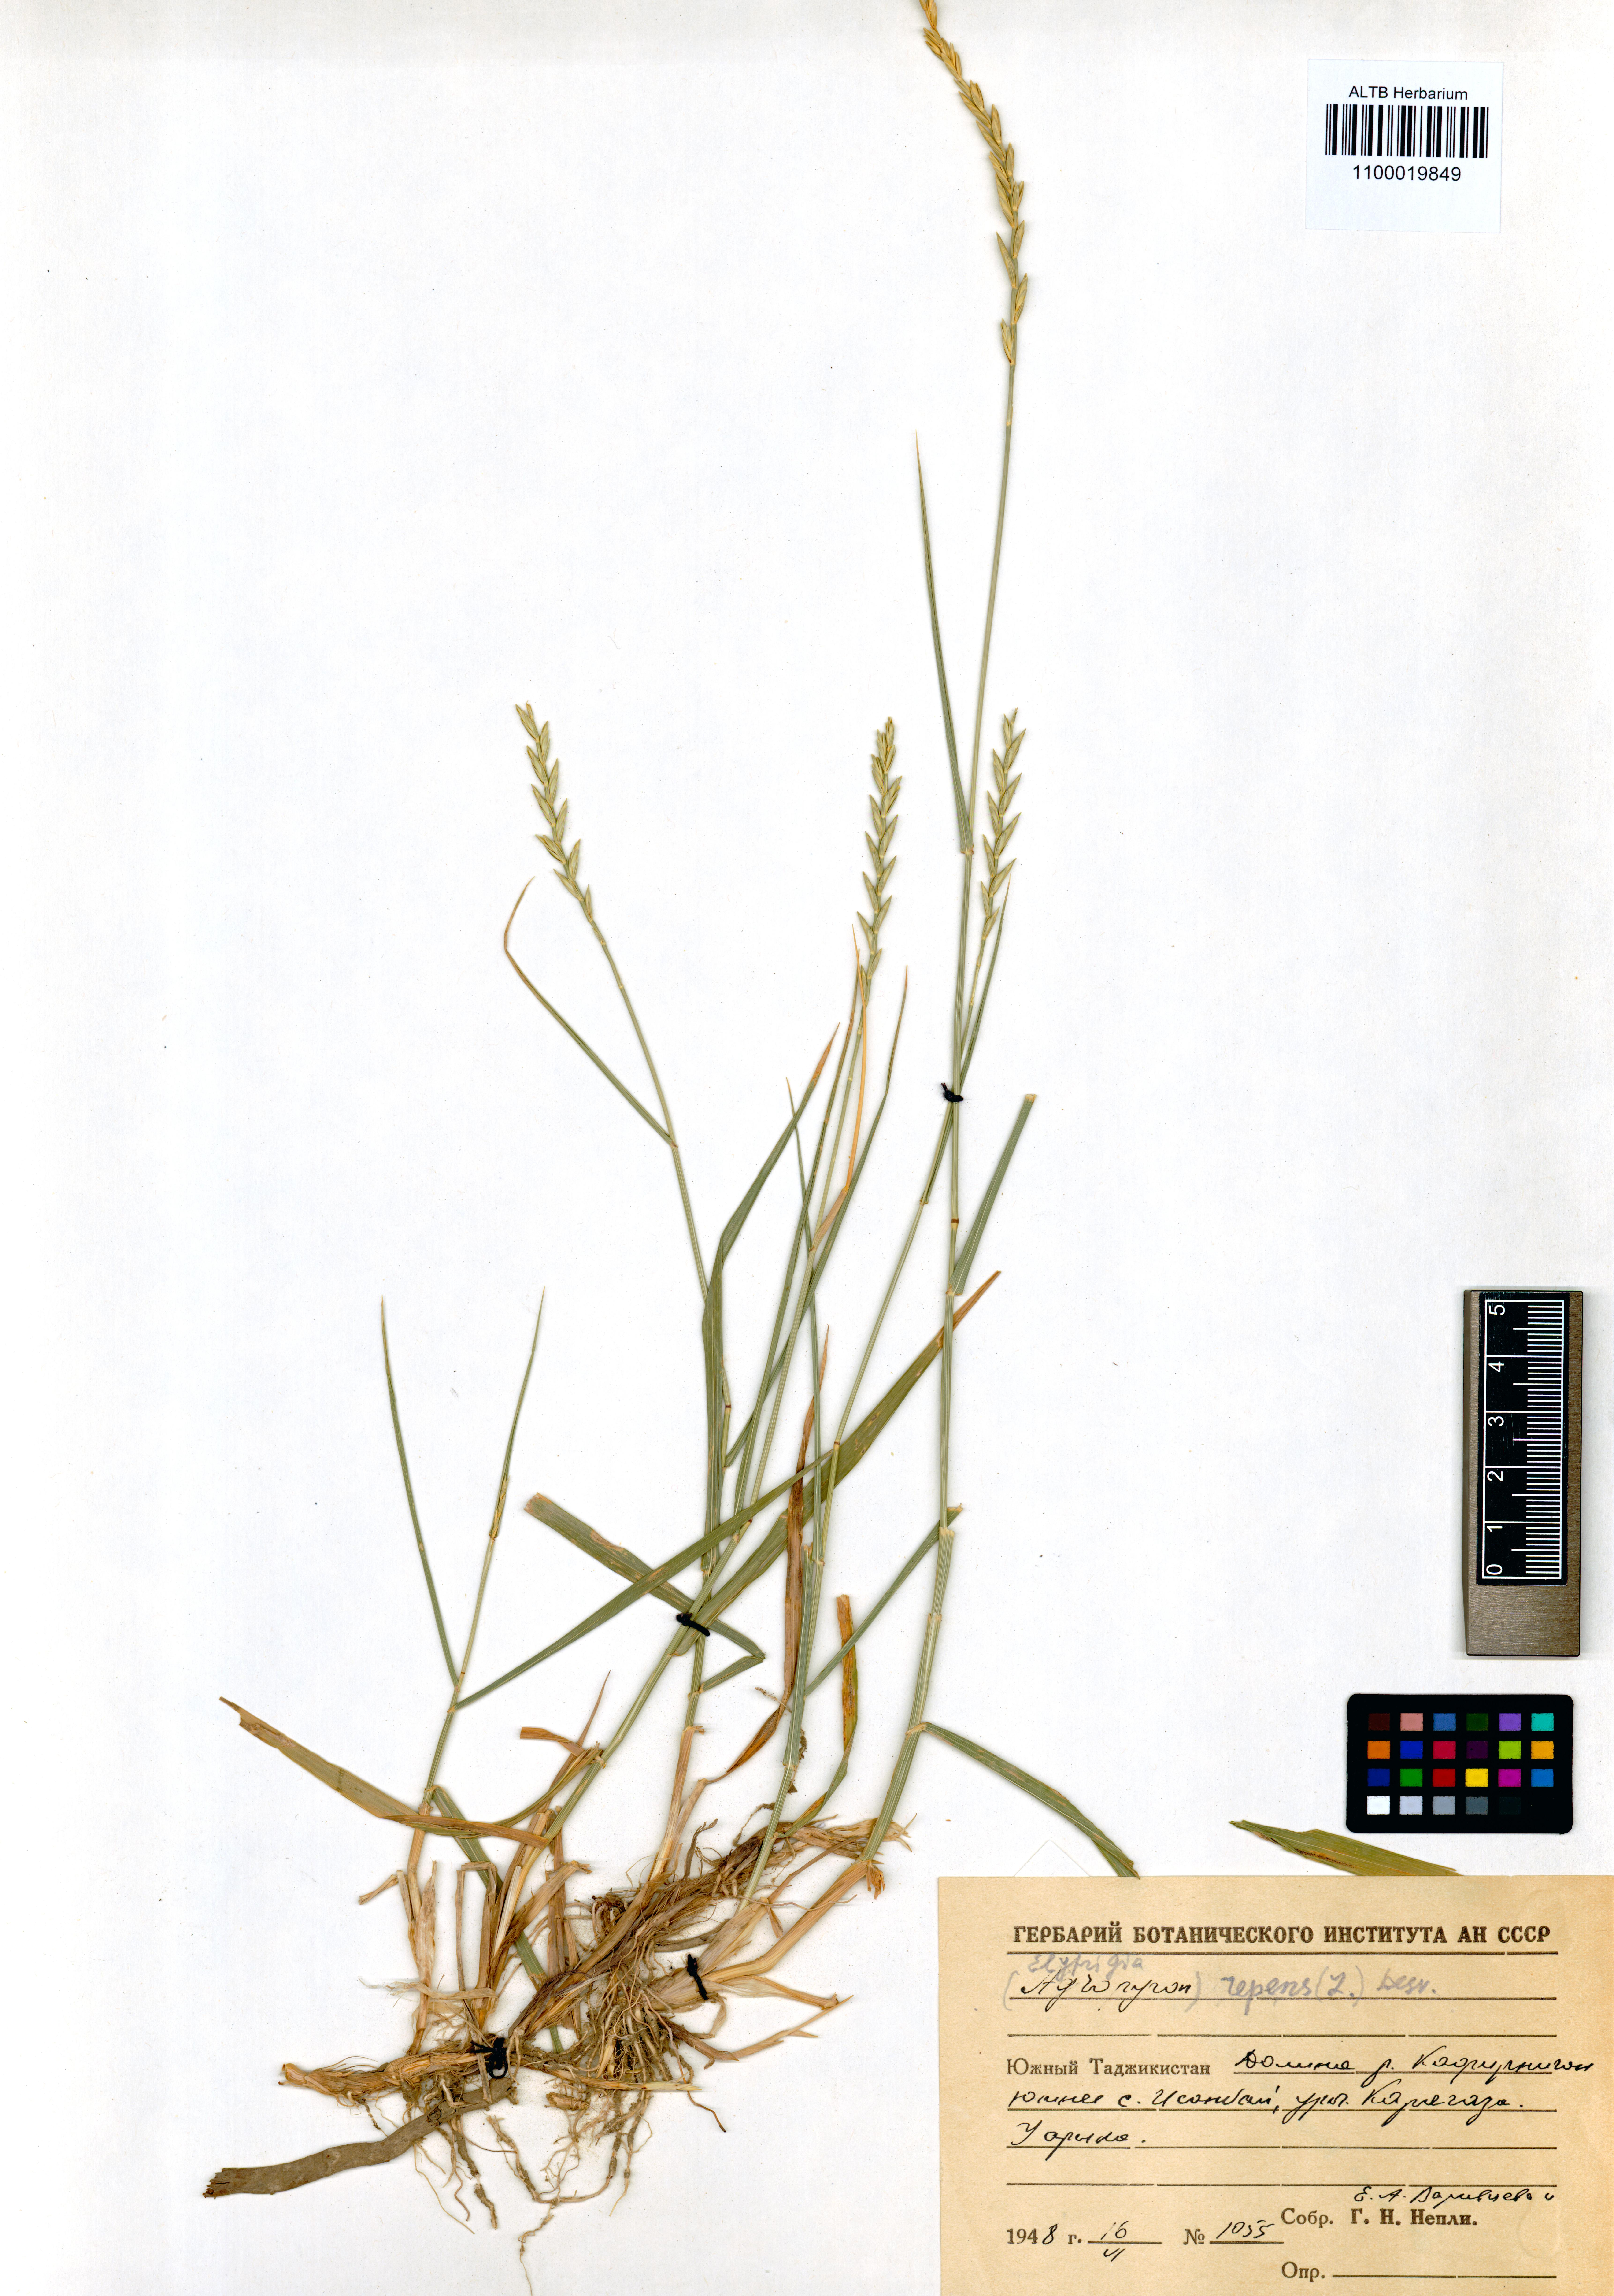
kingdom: Plantae
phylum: Tracheophyta
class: Liliopsida
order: Poales
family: Poaceae
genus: Elymus
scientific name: Elymus repens
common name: Quackgrass
